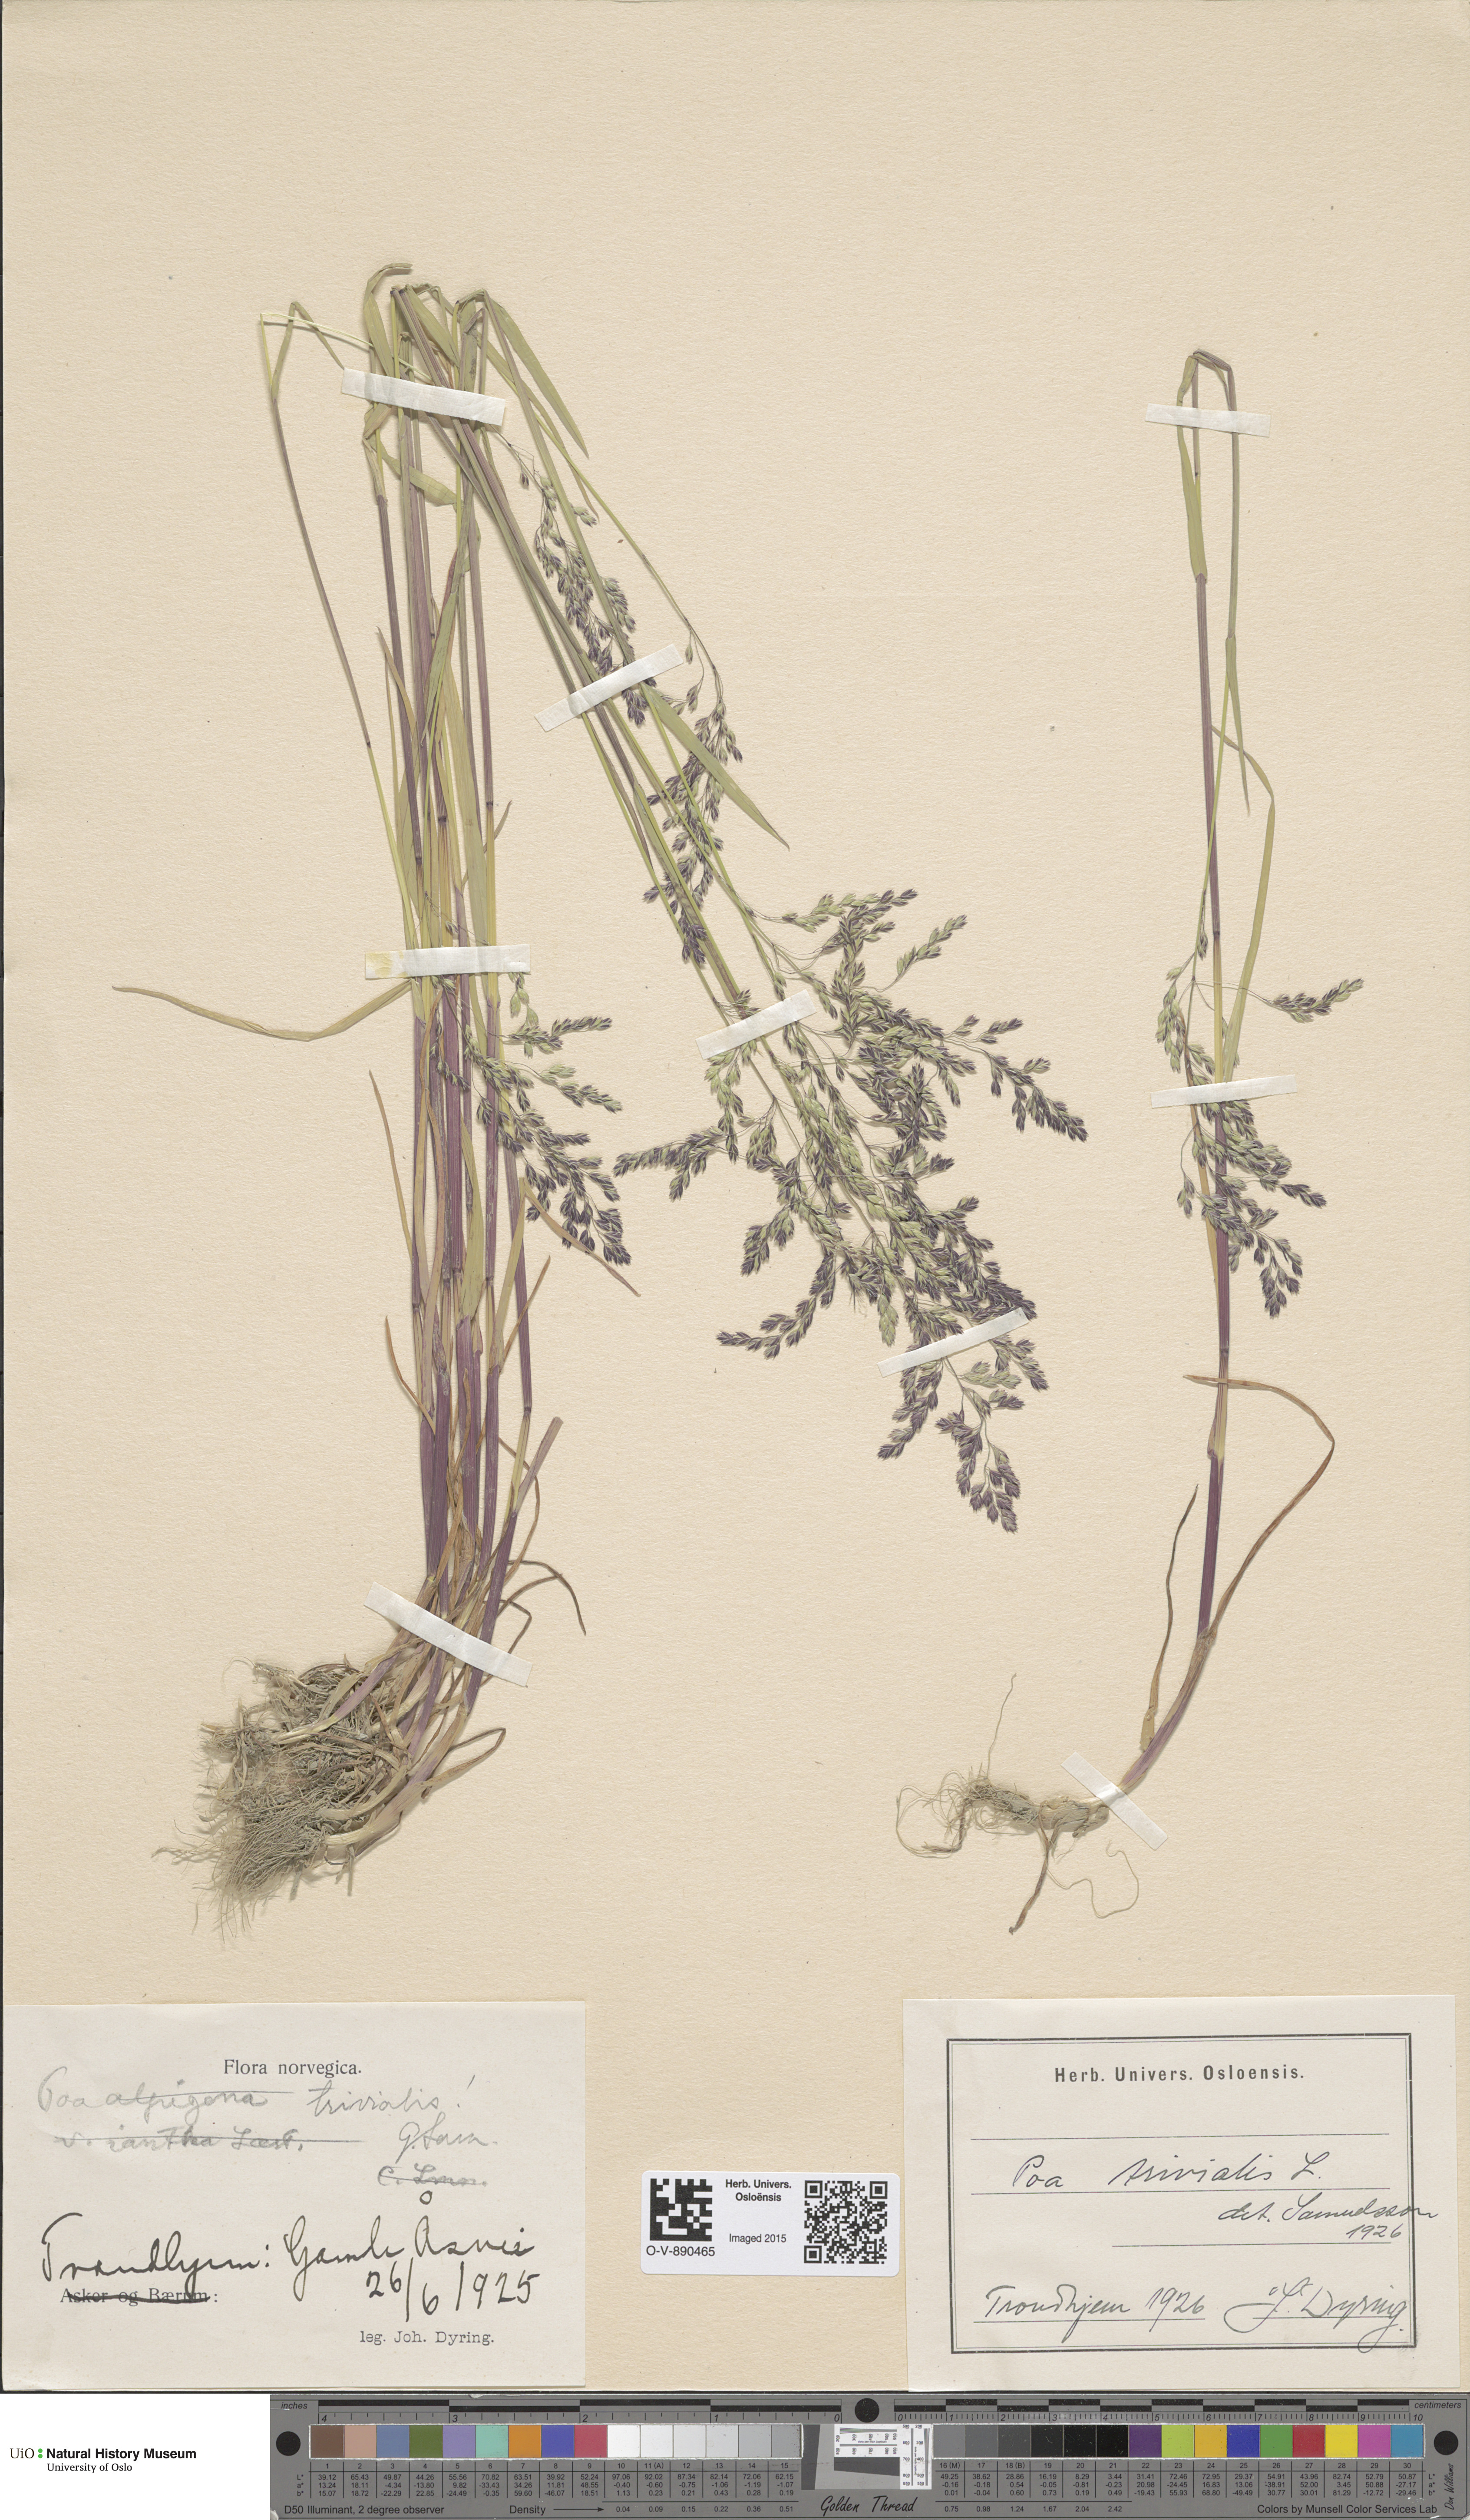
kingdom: Plantae
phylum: Tracheophyta
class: Liliopsida
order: Poales
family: Poaceae
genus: Poa
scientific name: Poa trivialis
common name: Rough bluegrass
